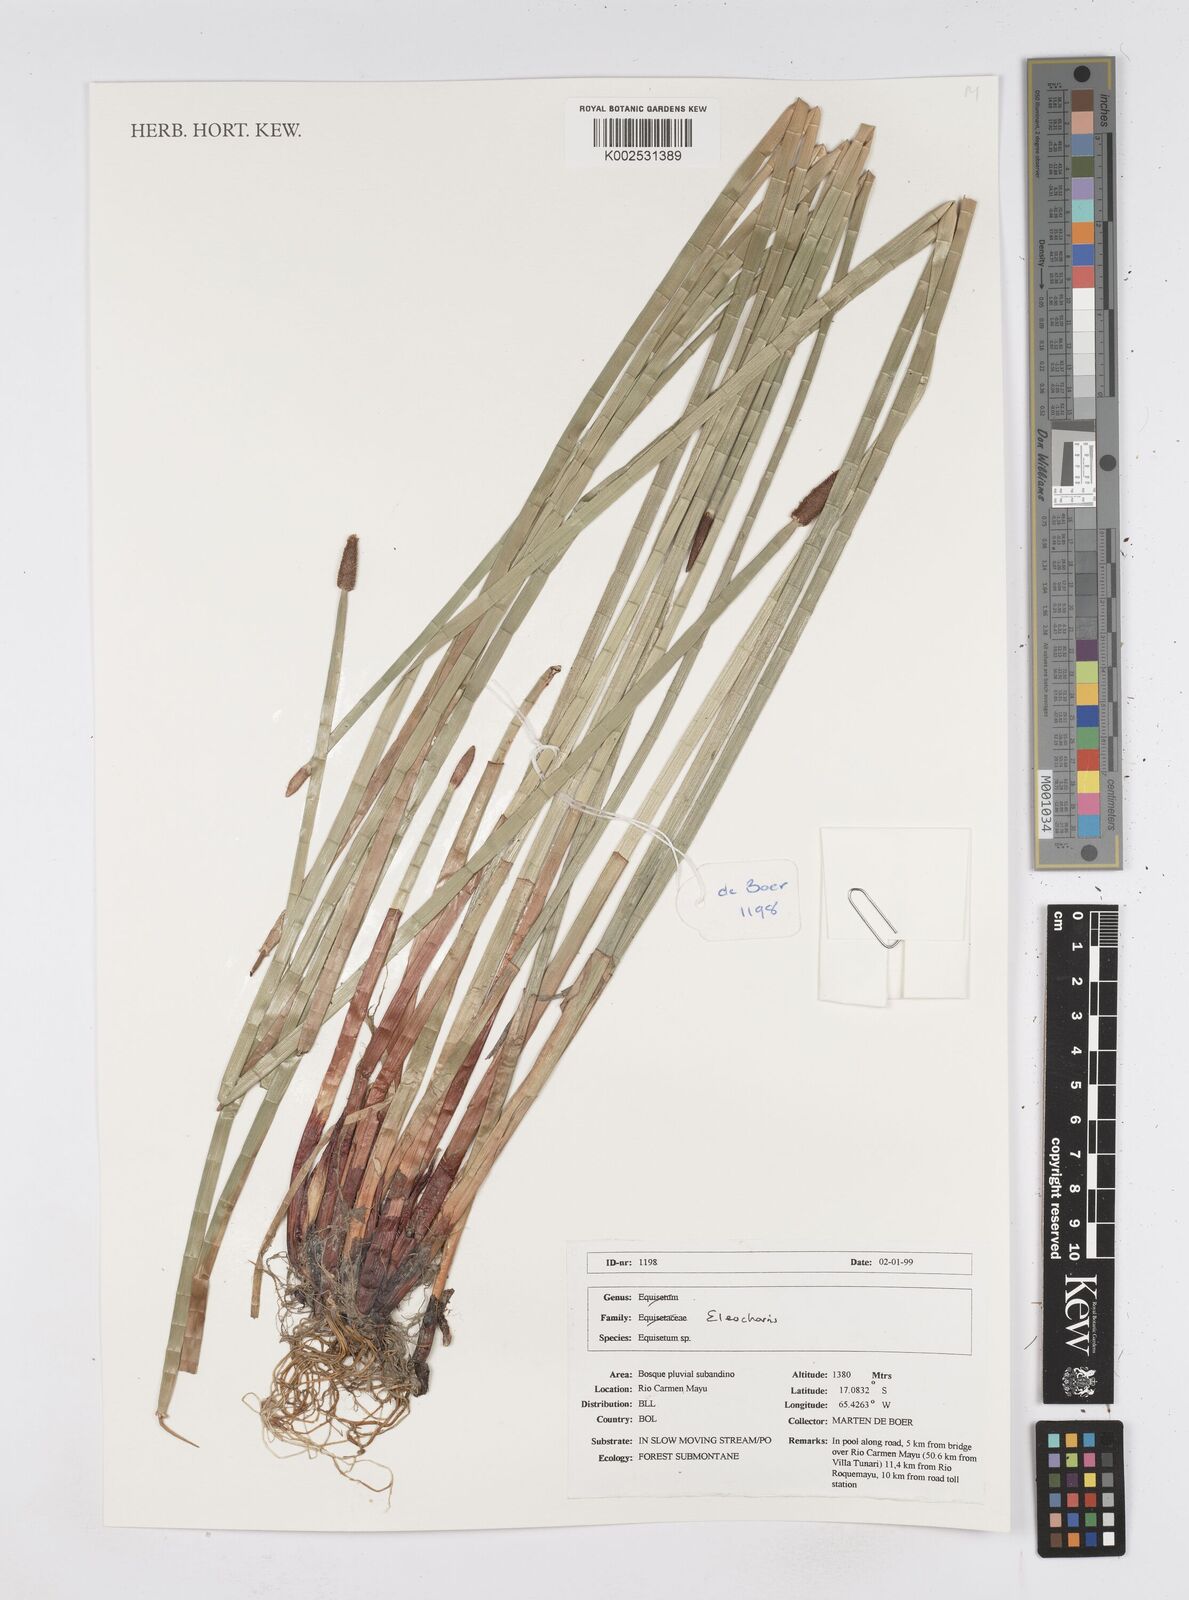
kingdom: Plantae
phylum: Tracheophyta
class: Liliopsida
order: Poales
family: Cyperaceae
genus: Eleocharis
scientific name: Eleocharis
